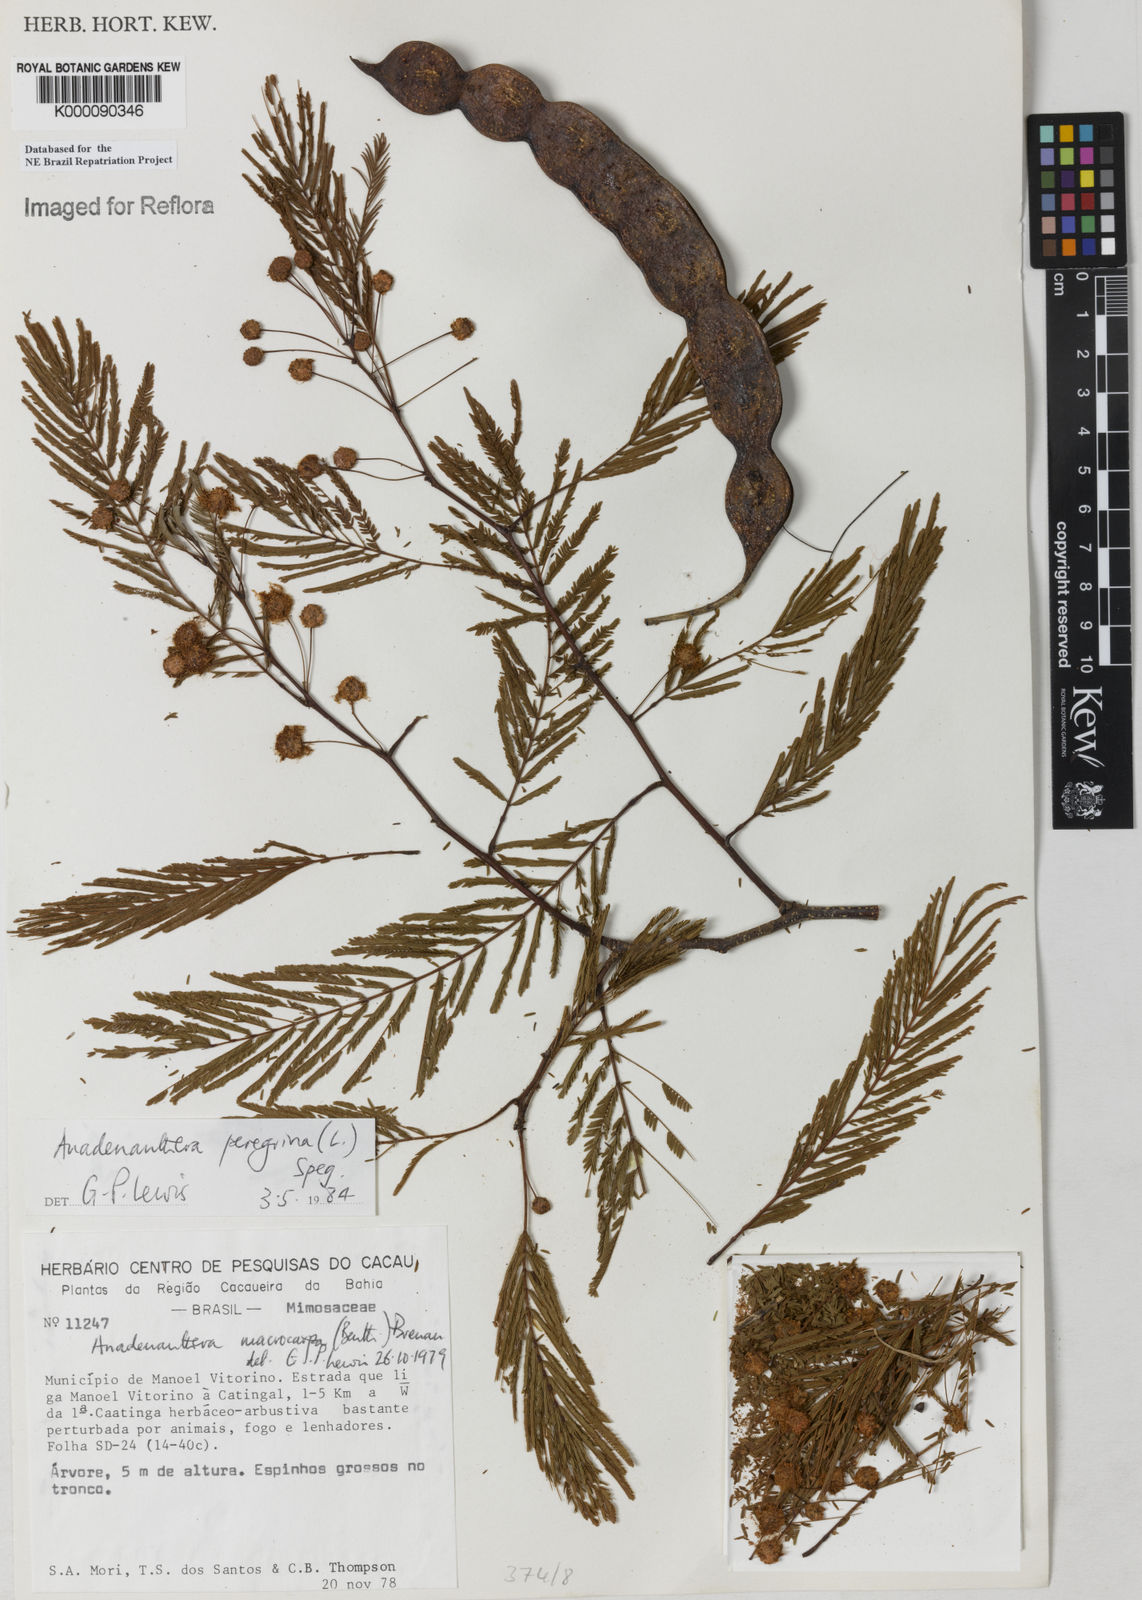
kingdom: Plantae
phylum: Tracheophyta
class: Magnoliopsida
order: Fabales
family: Fabaceae
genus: Anadenanthera
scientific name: Anadenanthera peregrina
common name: Cohoba
